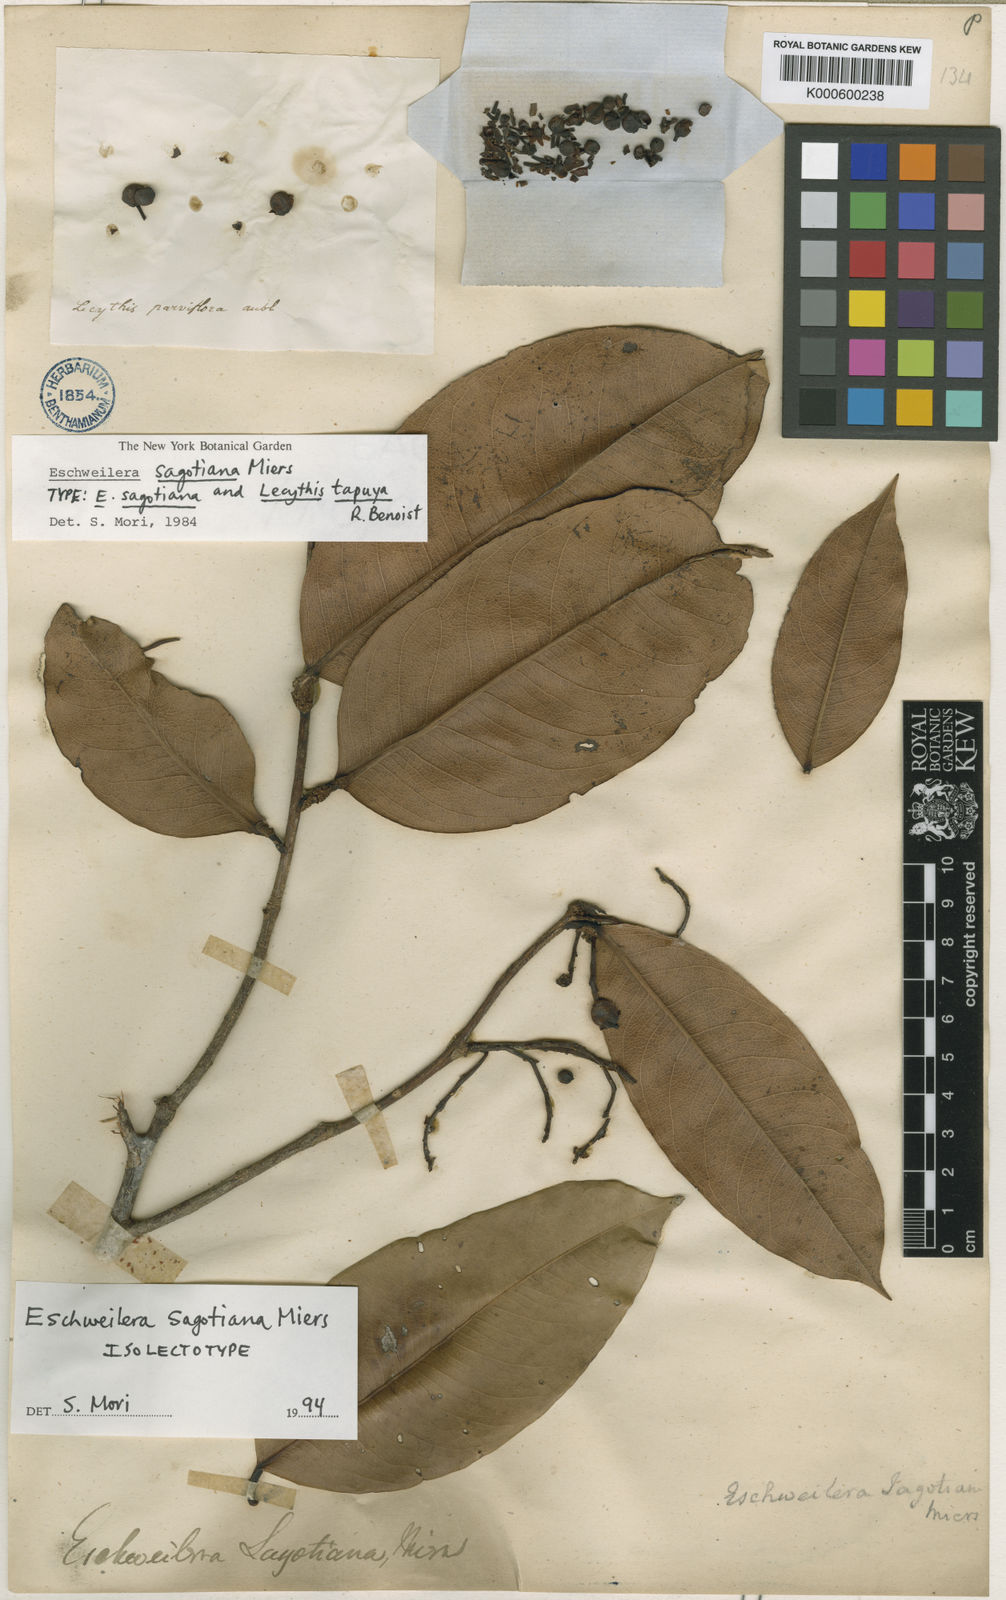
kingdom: Plantae
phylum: Tracheophyta
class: Magnoliopsida
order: Ericales
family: Lecythidaceae
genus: Eschweilera
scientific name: Eschweilera sagotiana
